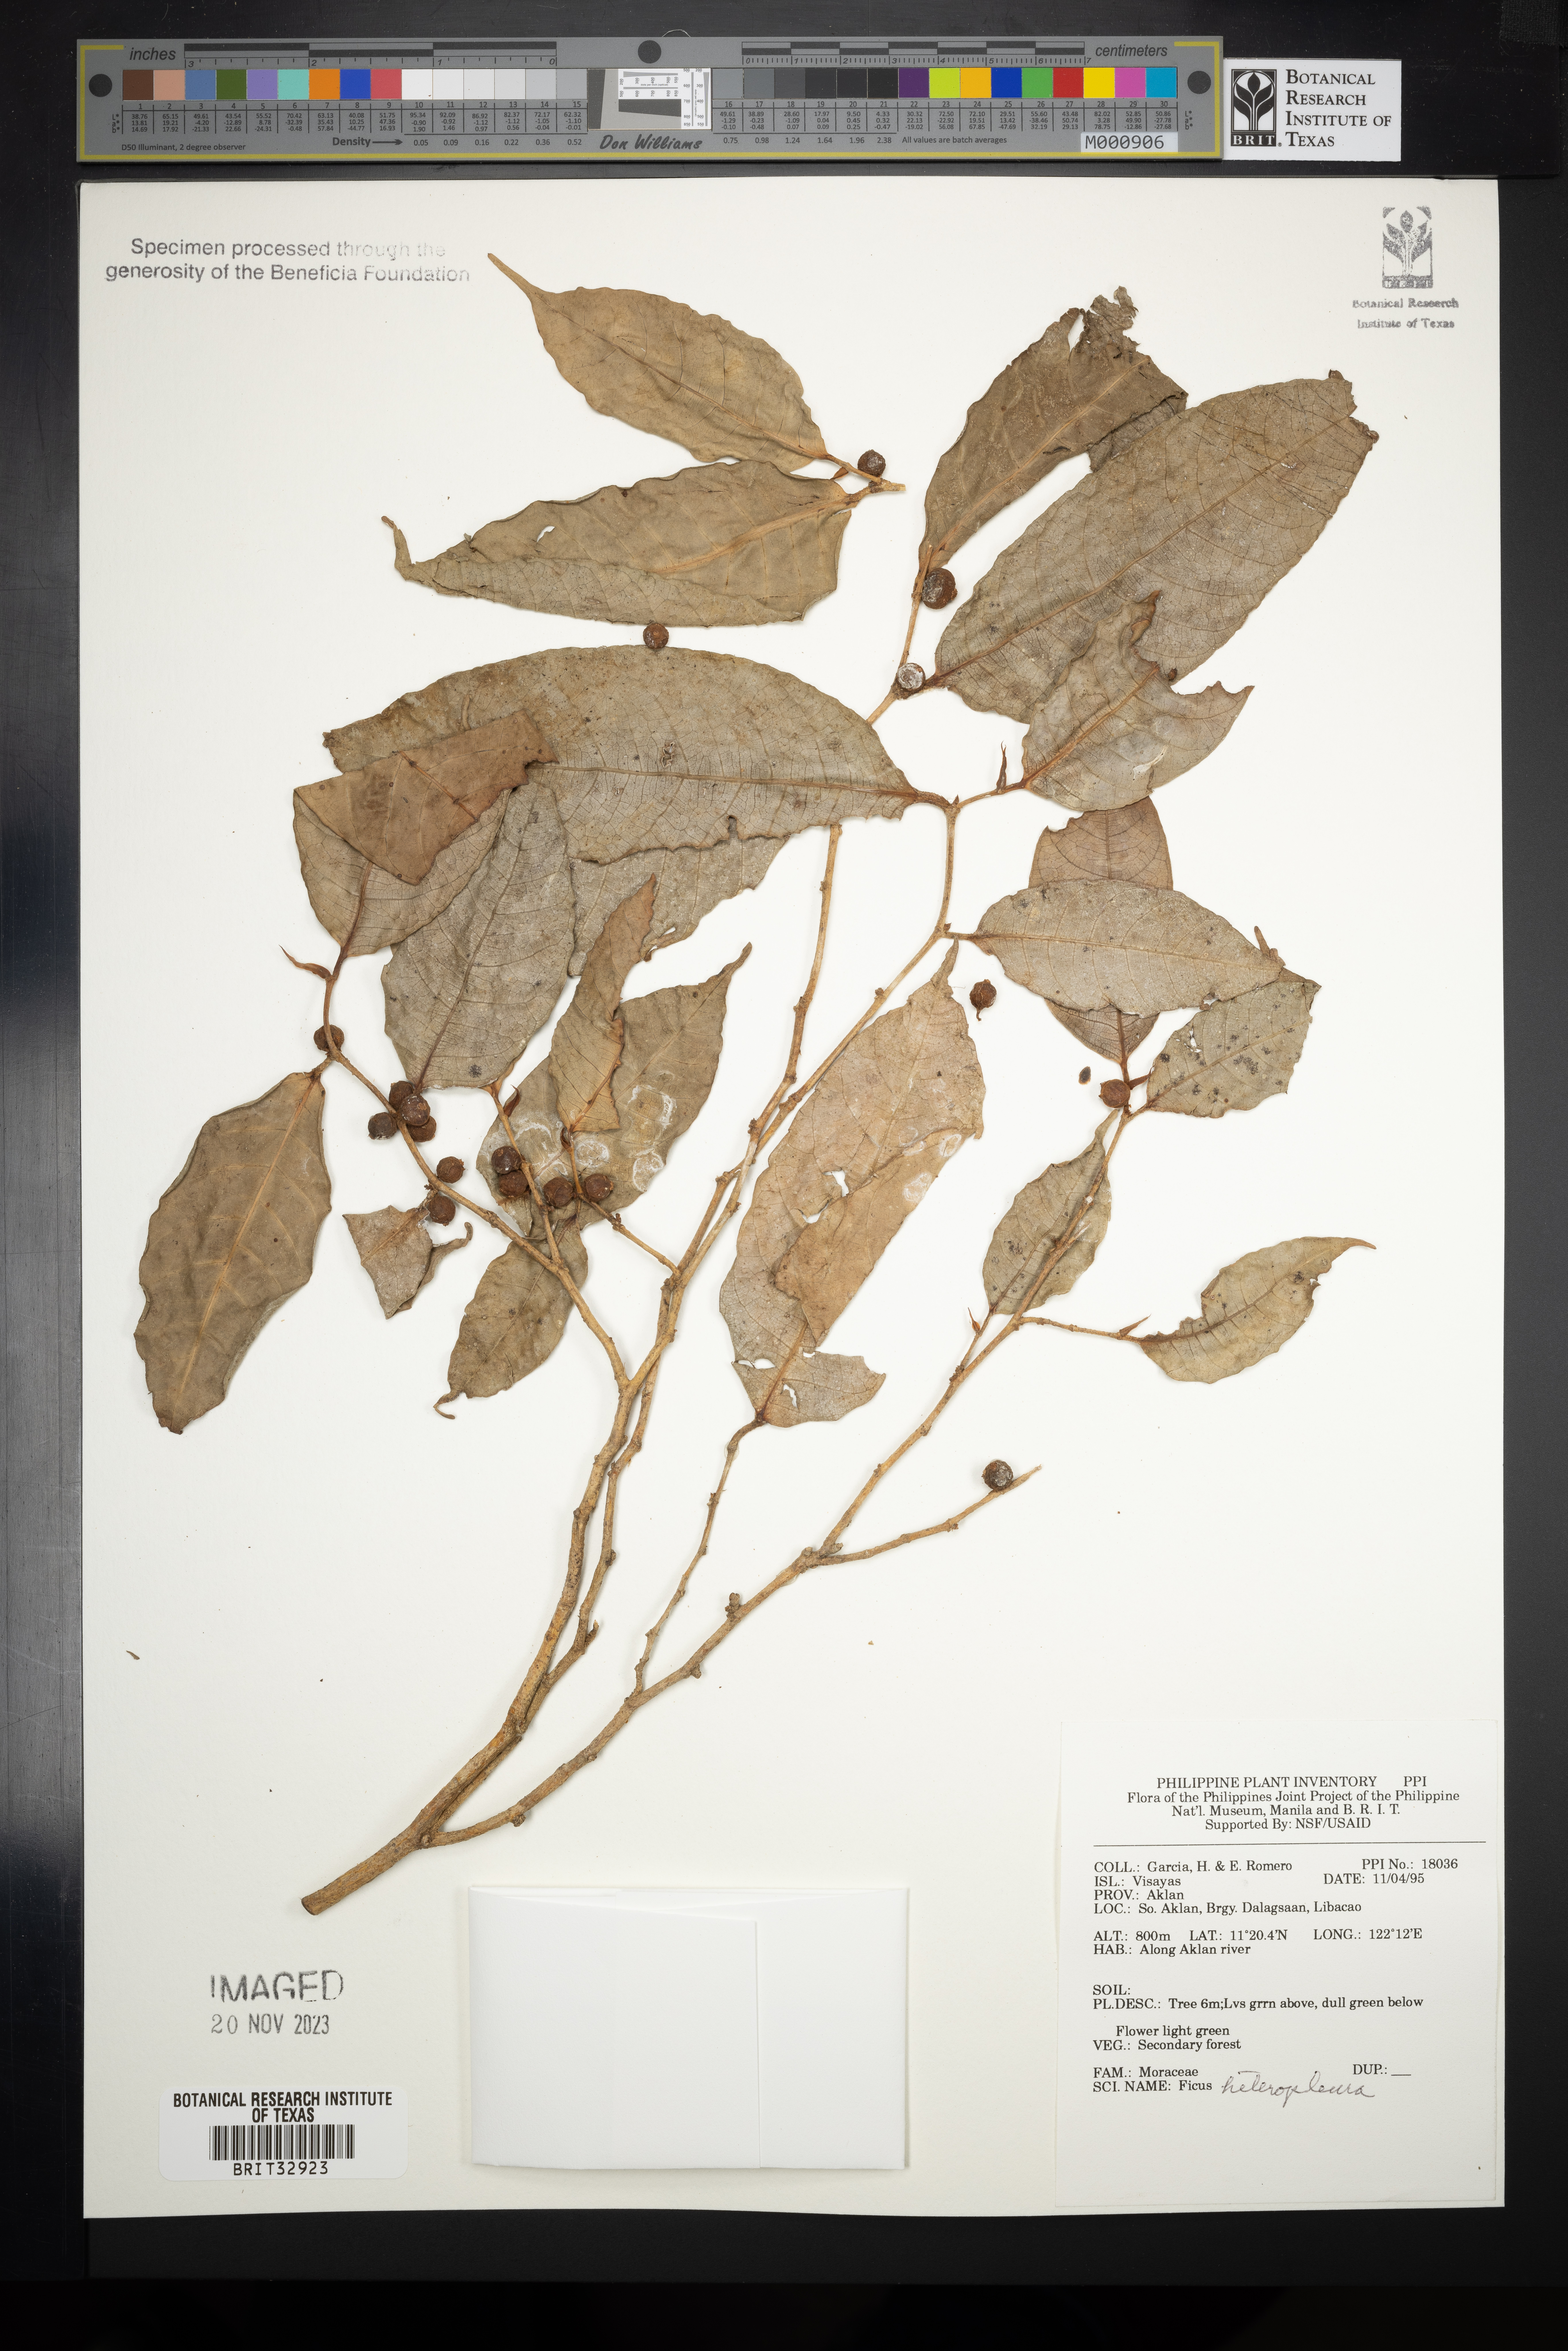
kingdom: Plantae
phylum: Tracheophyta
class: Magnoliopsida
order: Rosales
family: Moraceae
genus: Ficus
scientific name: Ficus heteropleura
